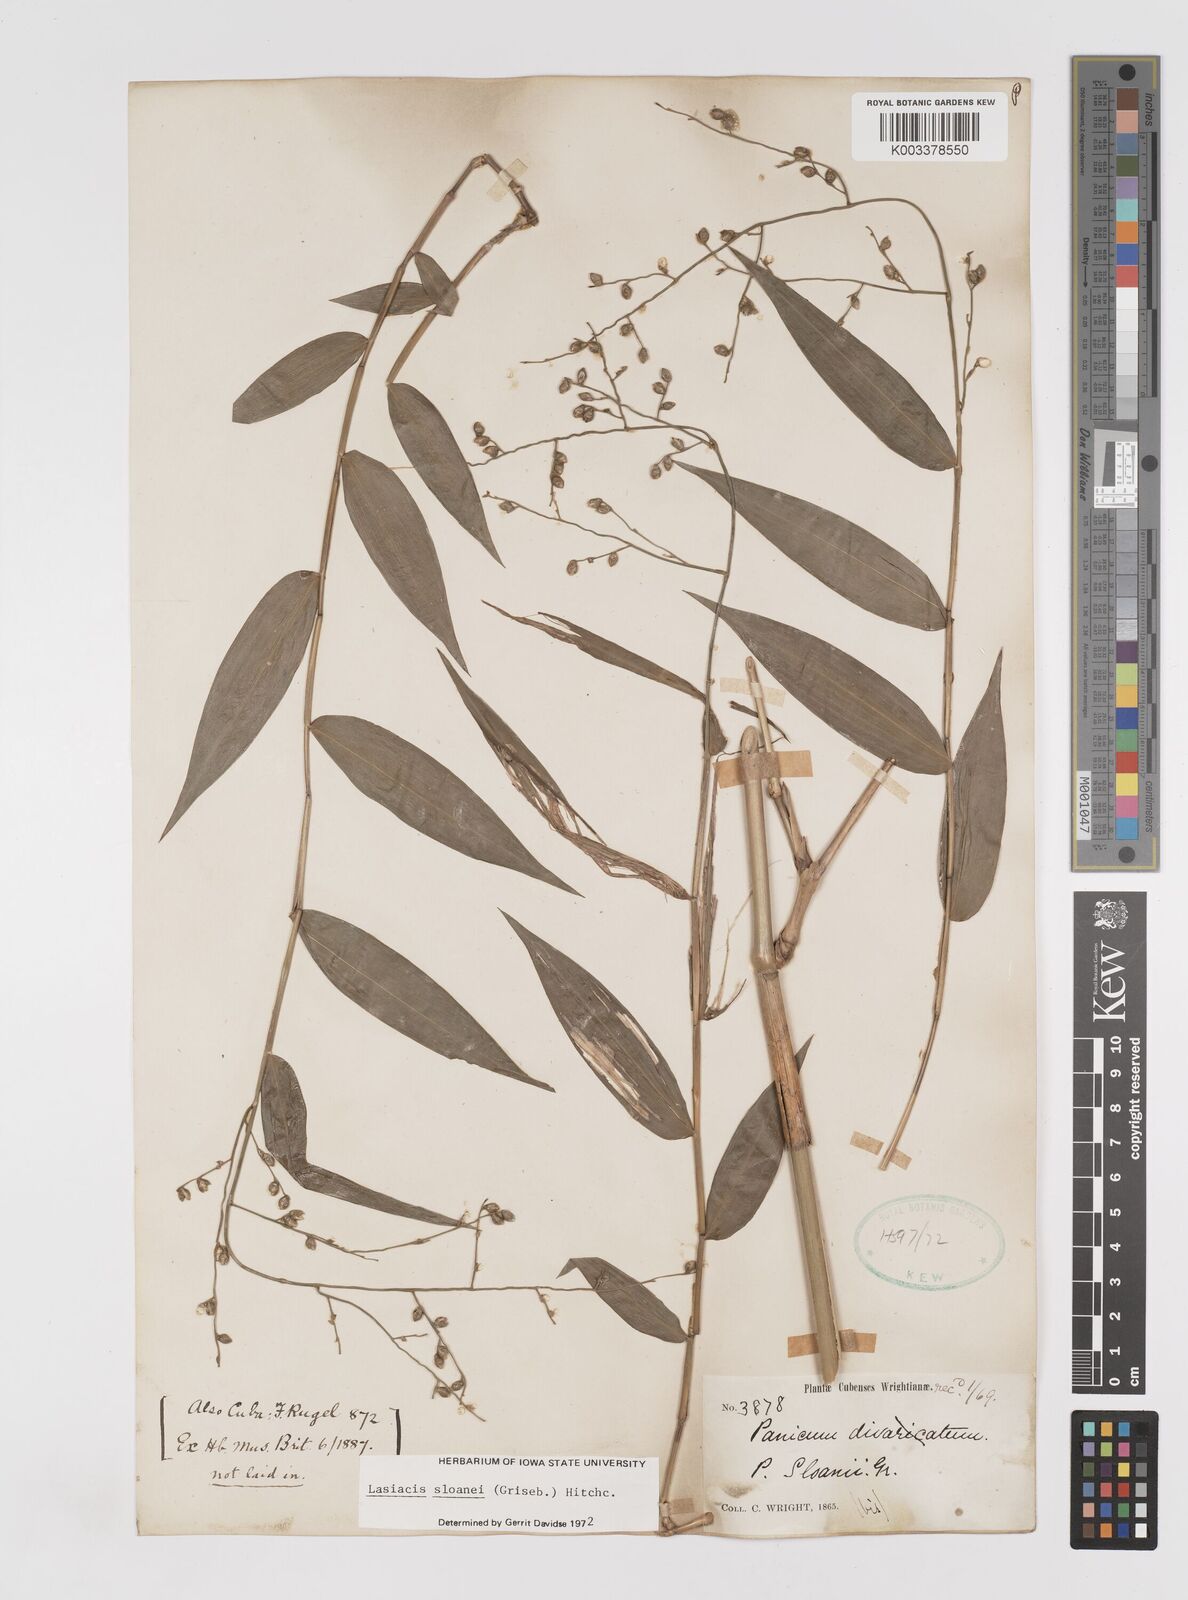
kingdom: Plantae
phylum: Tracheophyta
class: Liliopsida
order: Poales
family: Poaceae
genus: Lasiacis
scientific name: Lasiacis sloanei
